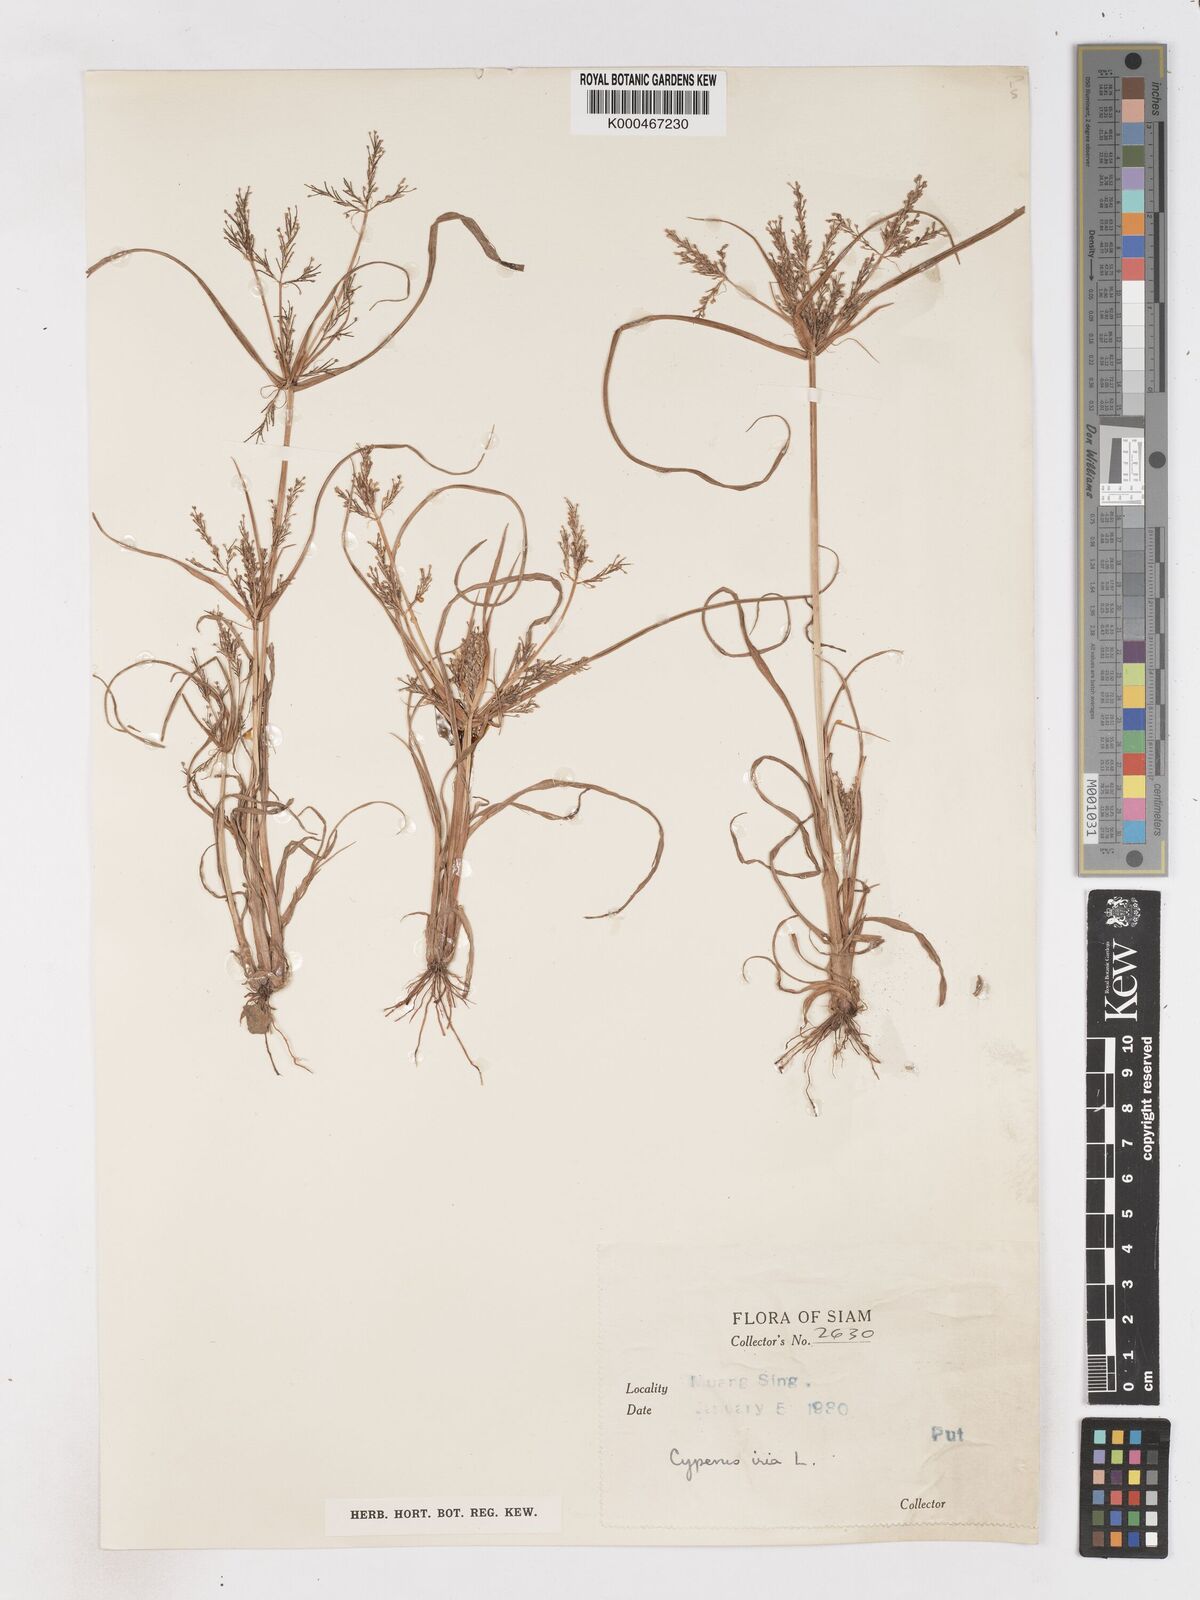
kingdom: Plantae
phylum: Tracheophyta
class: Liliopsida
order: Poales
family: Cyperaceae
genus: Cyperus
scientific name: Cyperus iria
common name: Ricefield flatsedge
